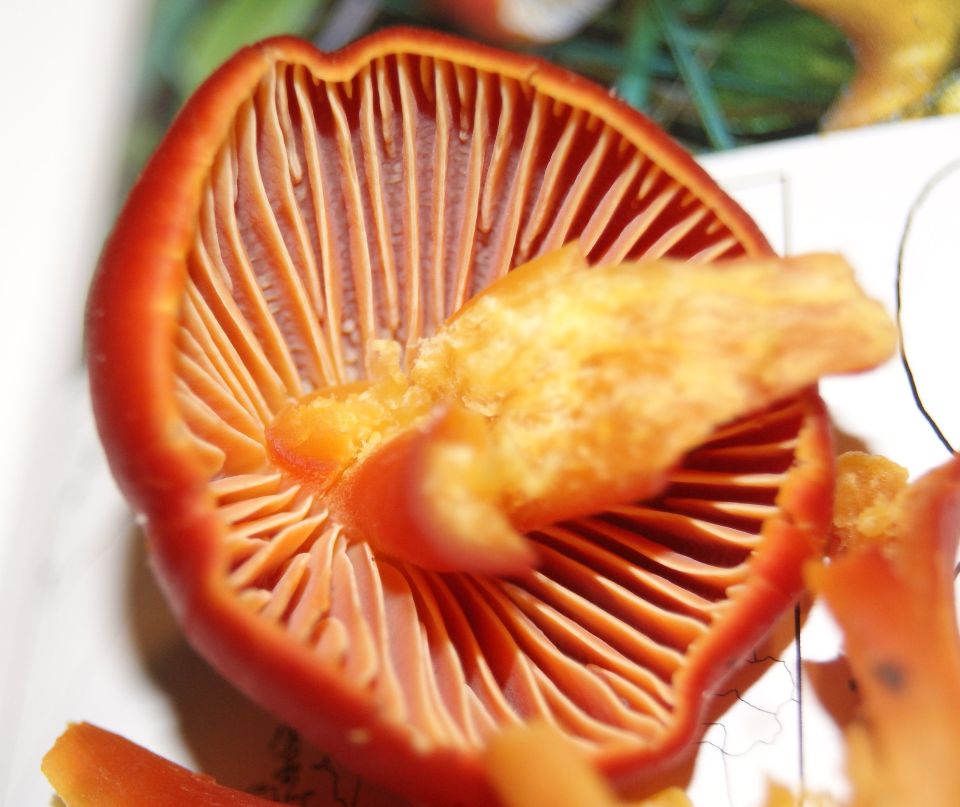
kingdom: Fungi
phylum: Basidiomycota
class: Agaricomycetes
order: Agaricales
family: Hygrophoraceae
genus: Hygrocybe
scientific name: Hygrocybe coccinea
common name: cinnober-vokshat
